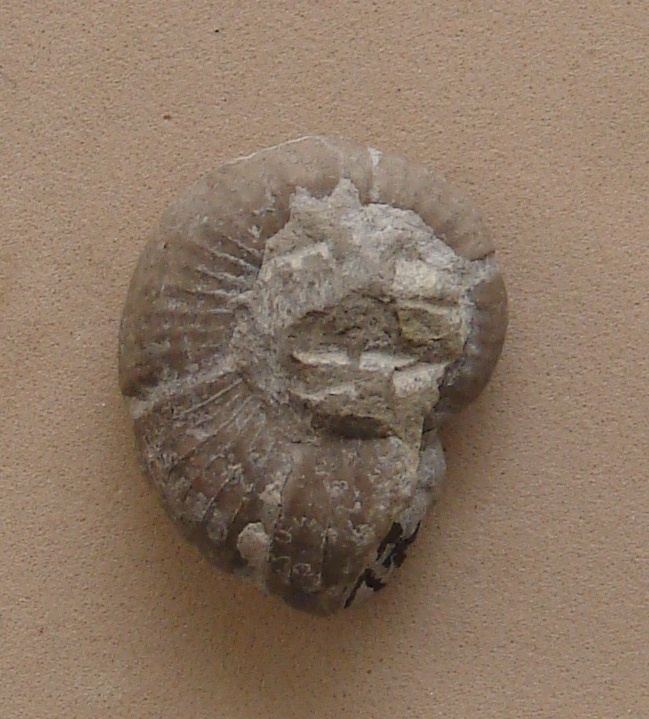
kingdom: Animalia
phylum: Mollusca
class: Cephalopoda
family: Lytoceratidae
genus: Lytoceras
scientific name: Lytoceras
